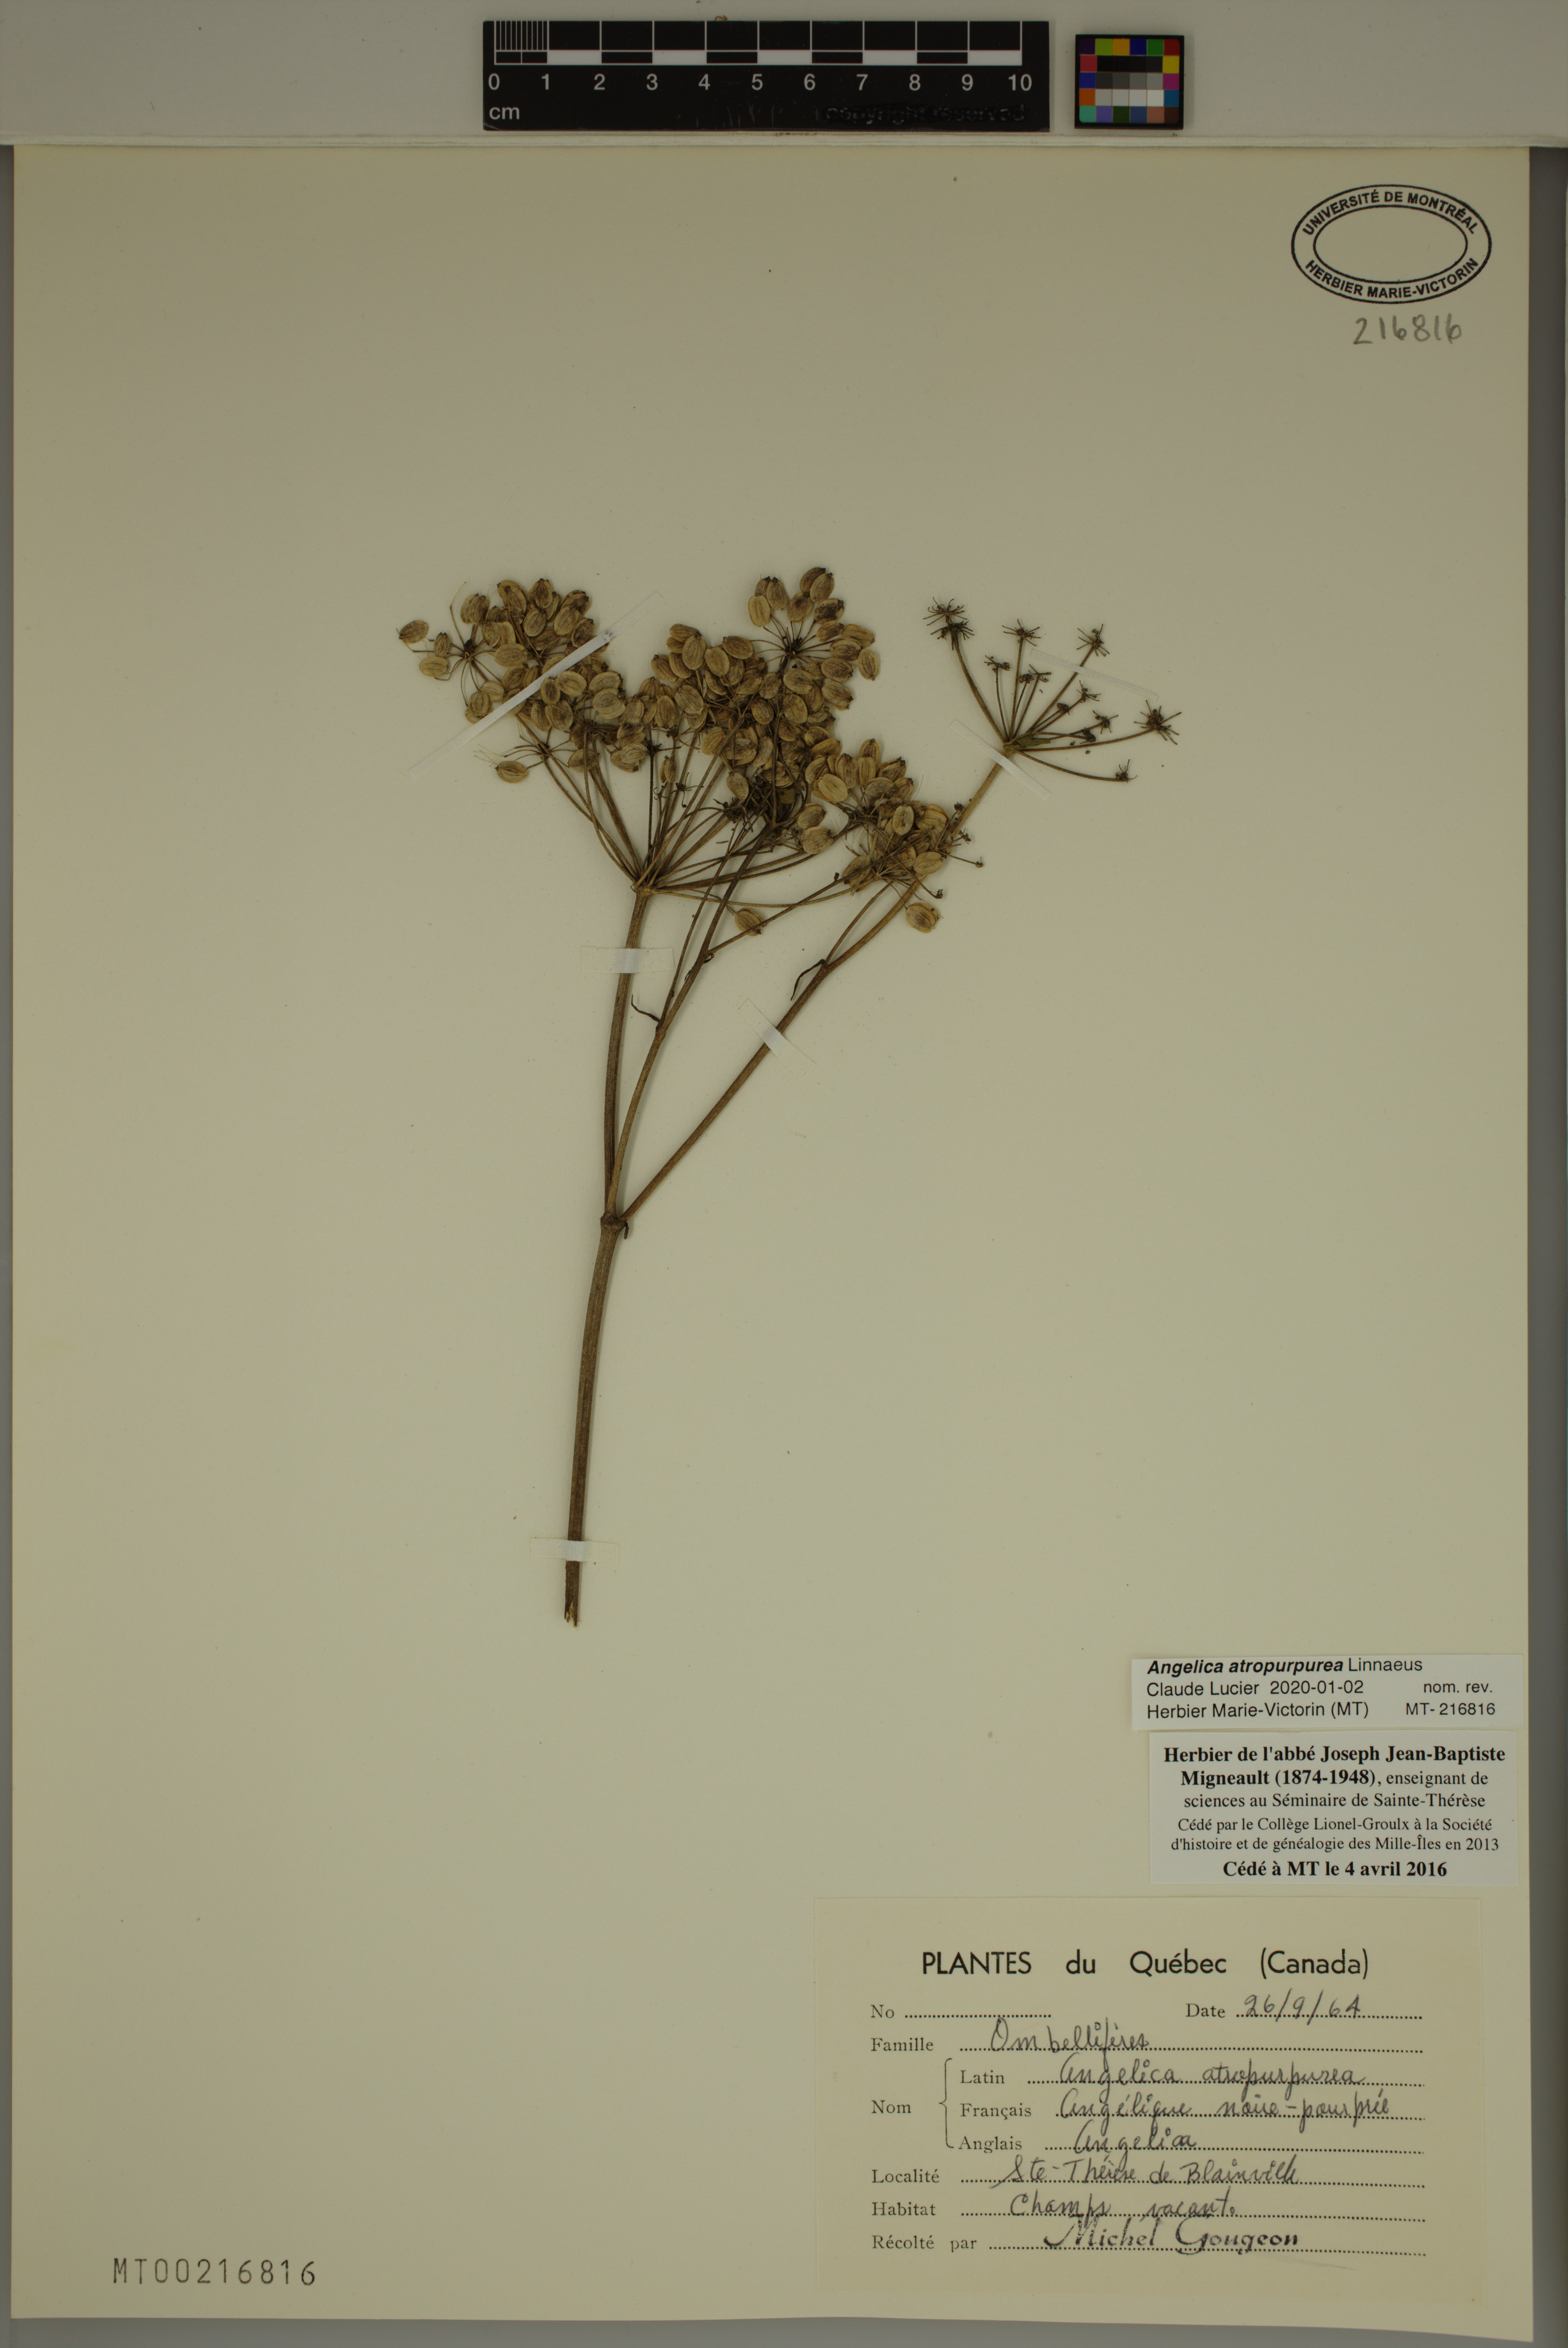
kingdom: Plantae
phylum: Tracheophyta
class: Magnoliopsida
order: Apiales
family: Apiaceae
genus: Angelica
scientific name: Angelica atropurpurea
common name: Great angelica
